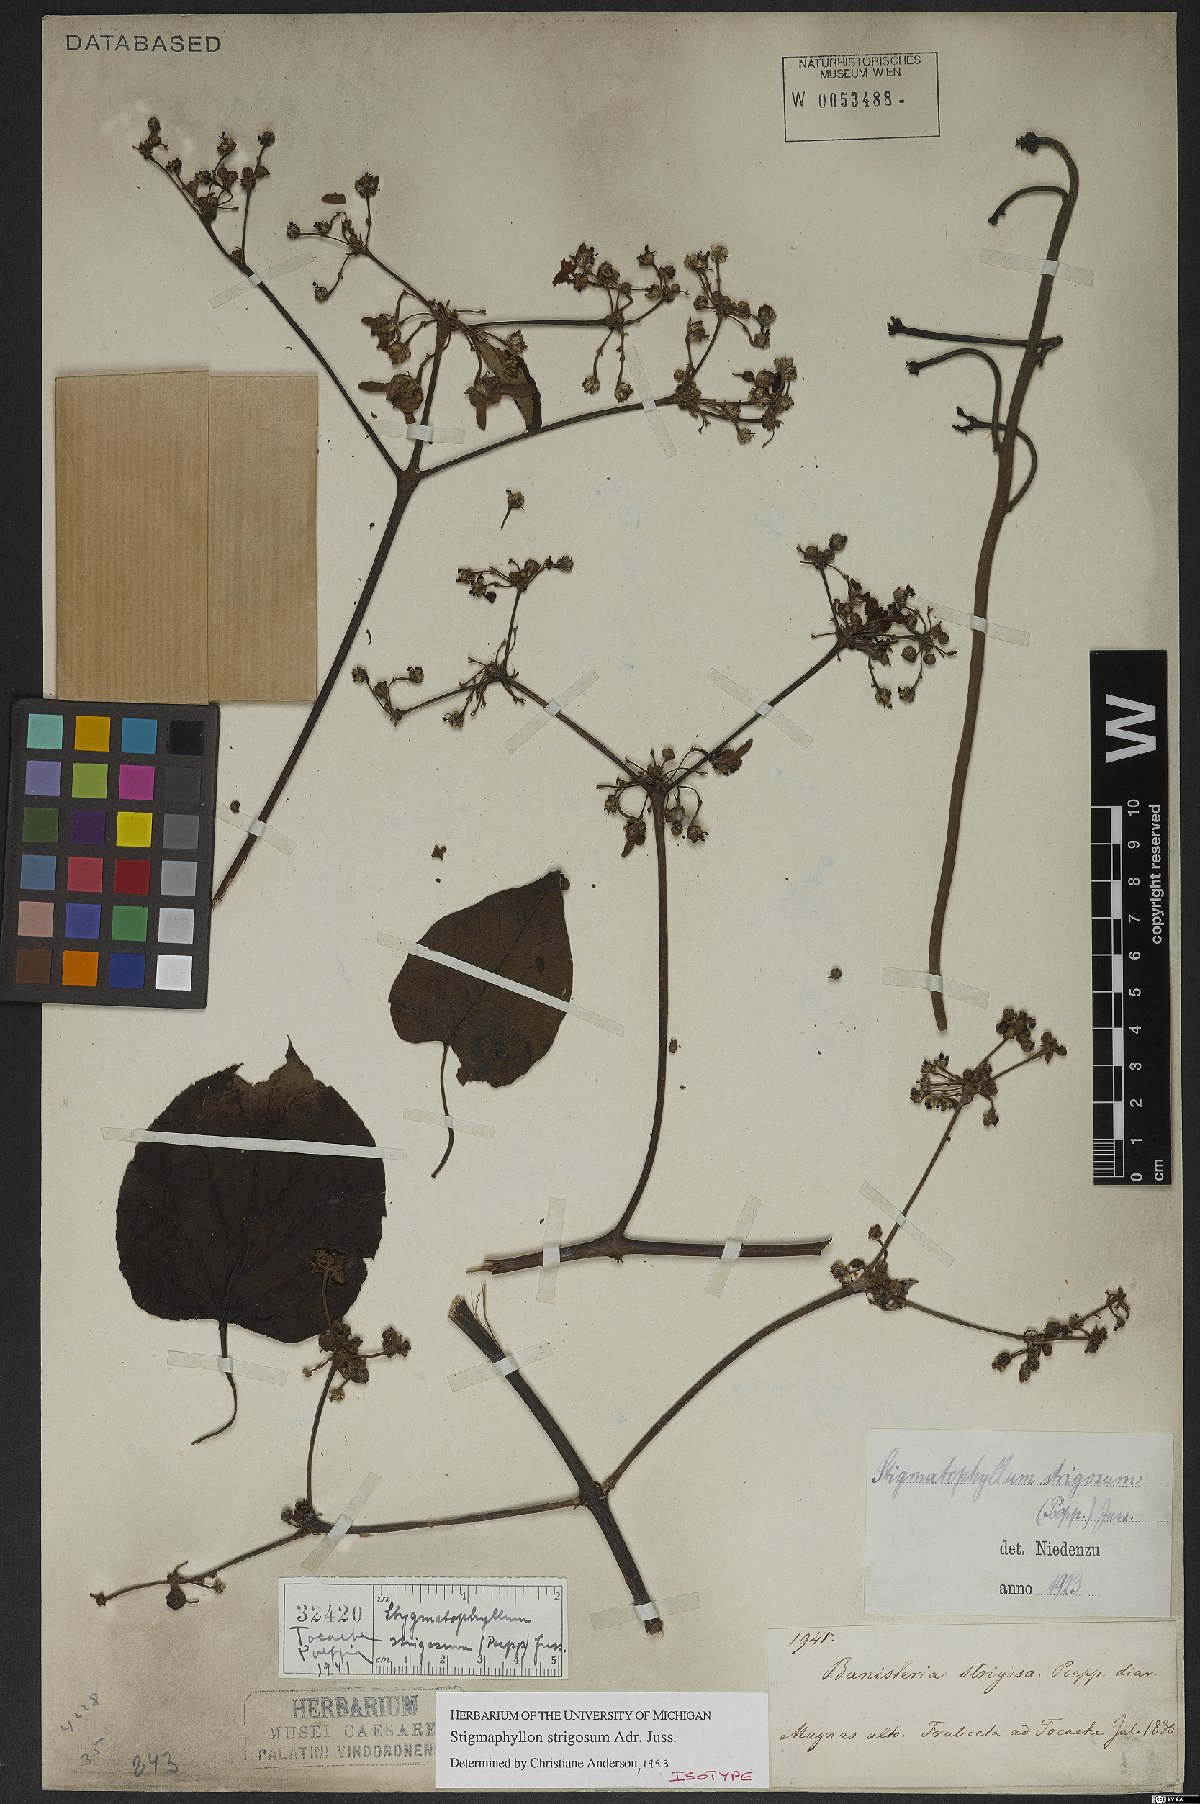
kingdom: Plantae
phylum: Tracheophyta
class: Magnoliopsida
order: Malpighiales
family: Malpighiaceae
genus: Stigmaphyllon
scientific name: Stigmaphyllon strigosum
